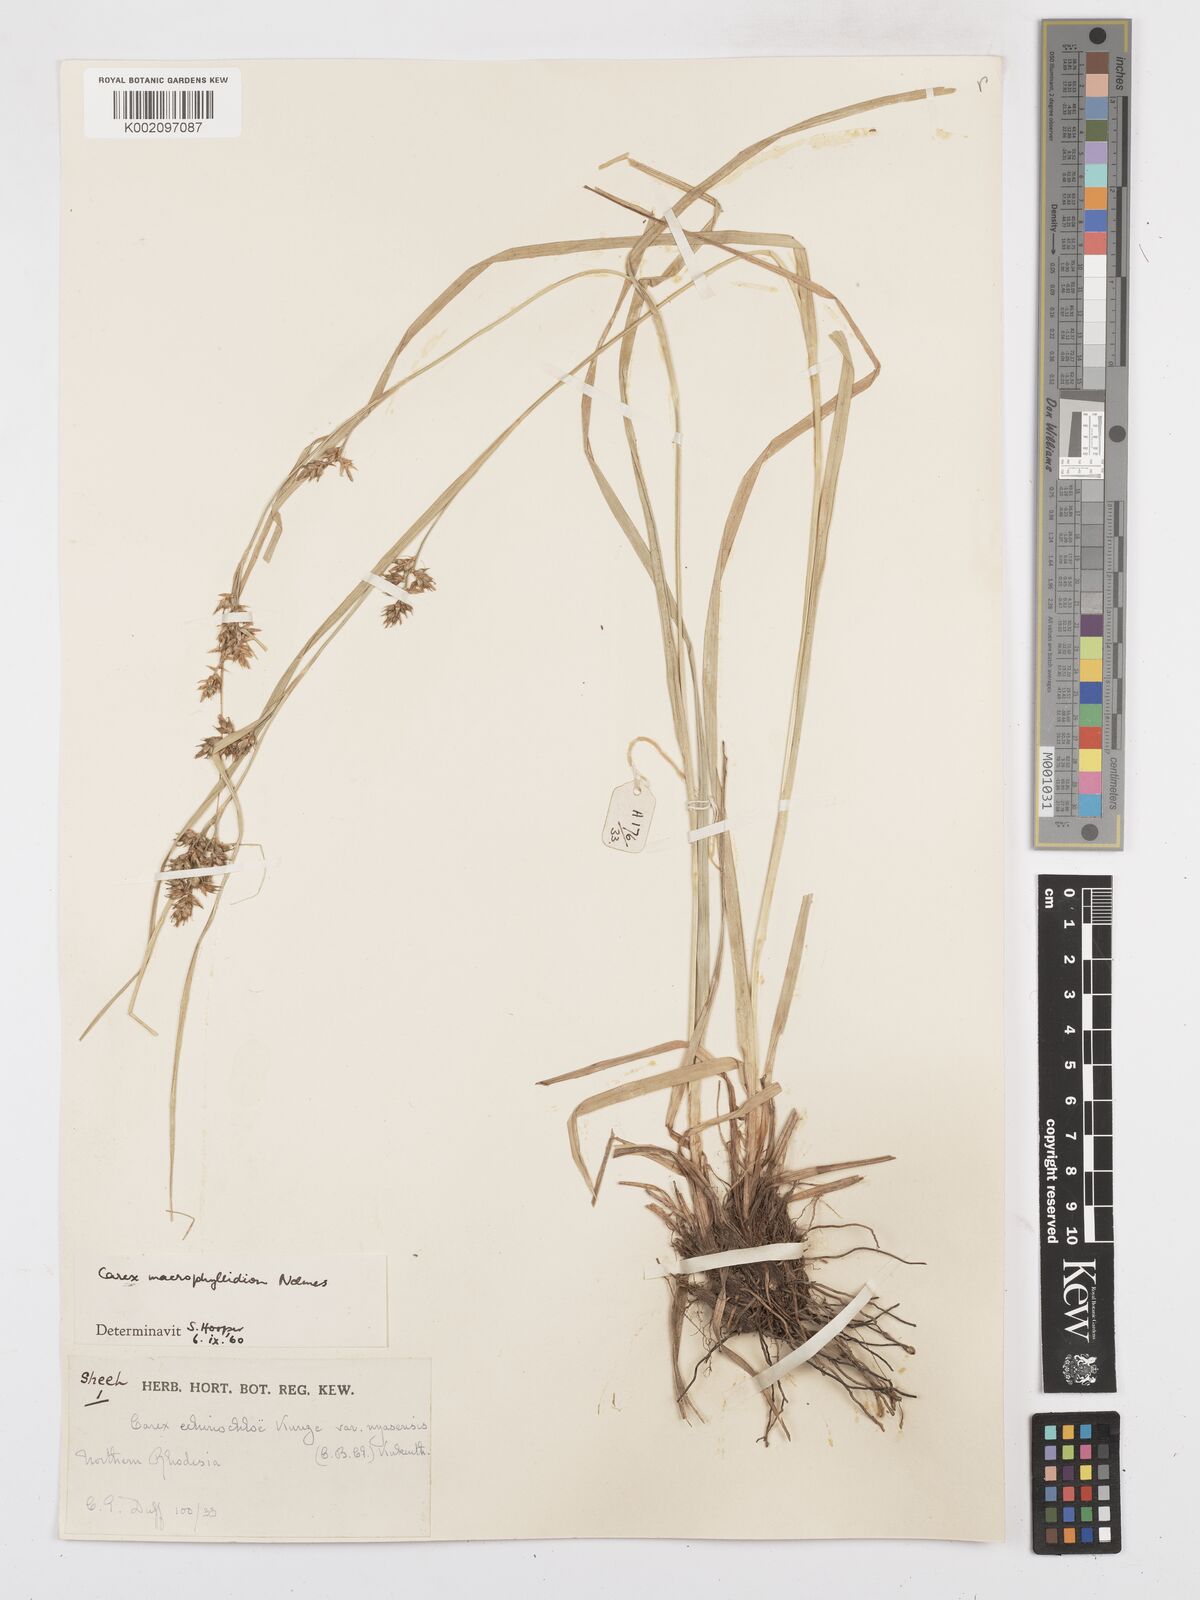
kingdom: Plantae
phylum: Tracheophyta
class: Liliopsida
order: Poales
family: Cyperaceae
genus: Carex
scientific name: Carex macrophyllidion
